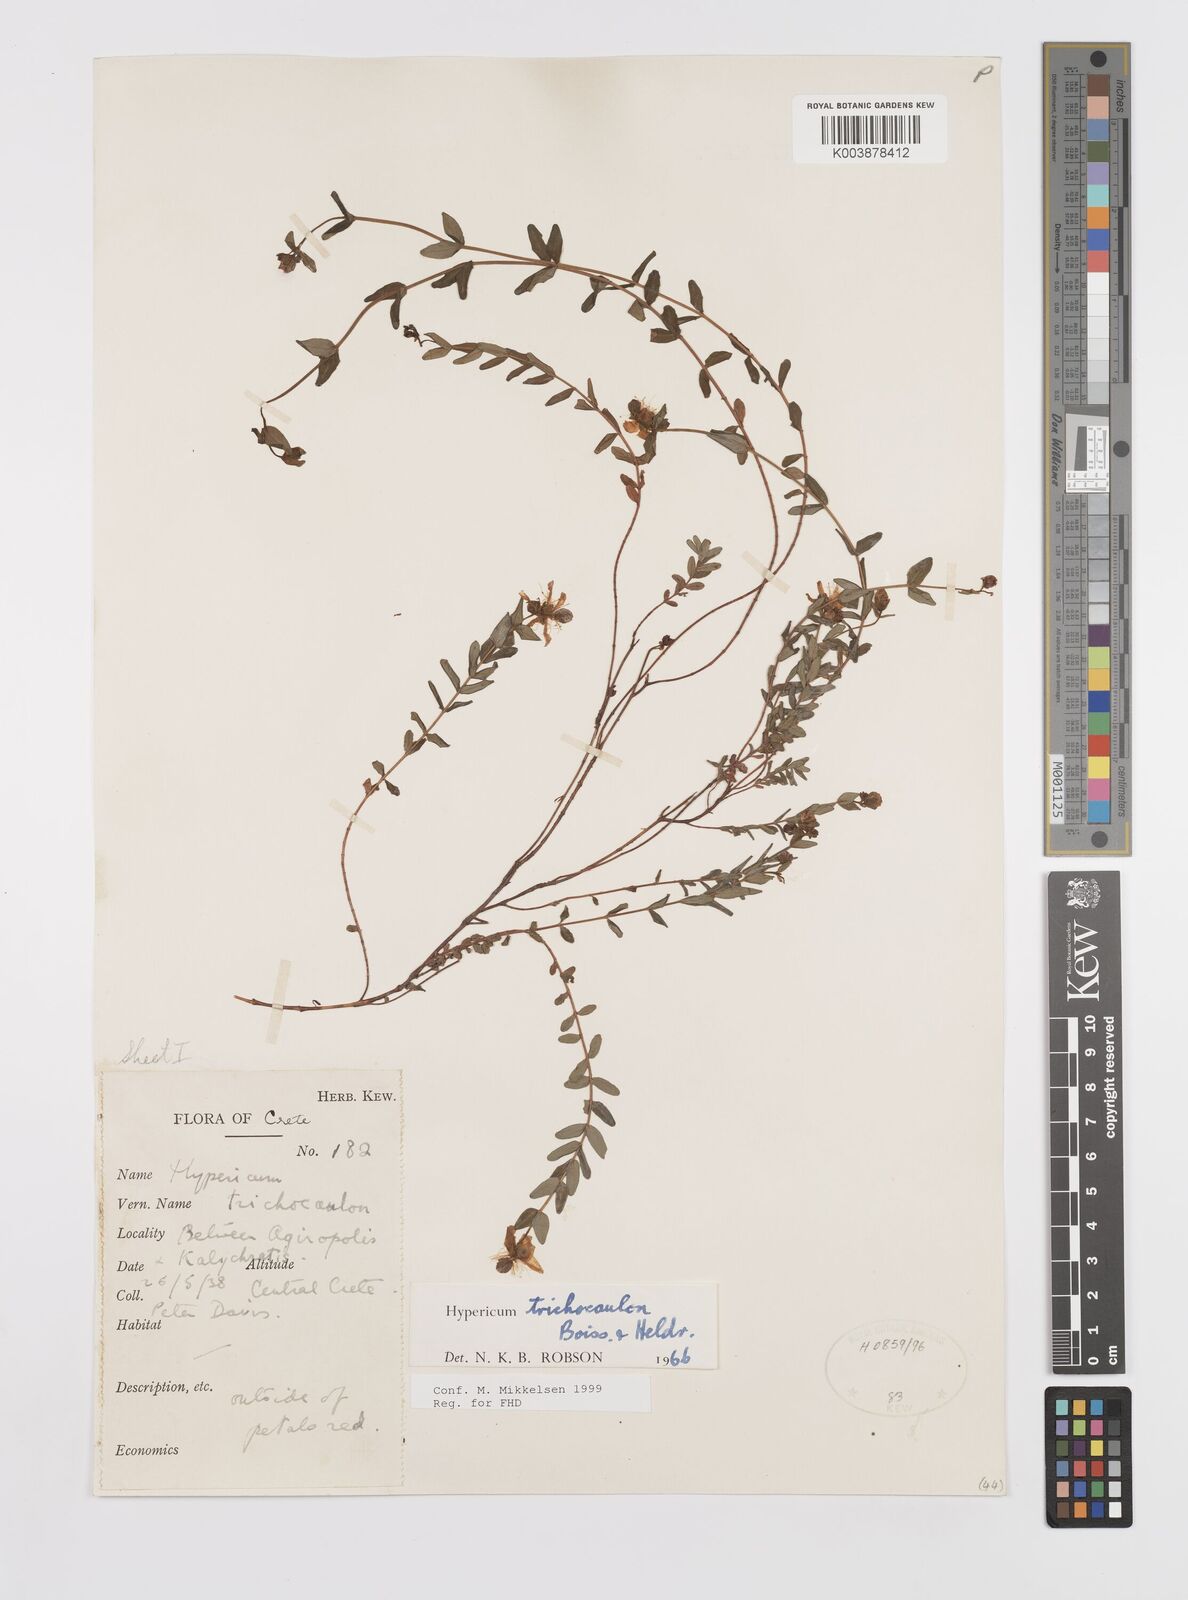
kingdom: Plantae
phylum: Tracheophyta
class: Magnoliopsida
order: Malpighiales
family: Hypericaceae
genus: Hypericum
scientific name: Hypericum trichocaulon
